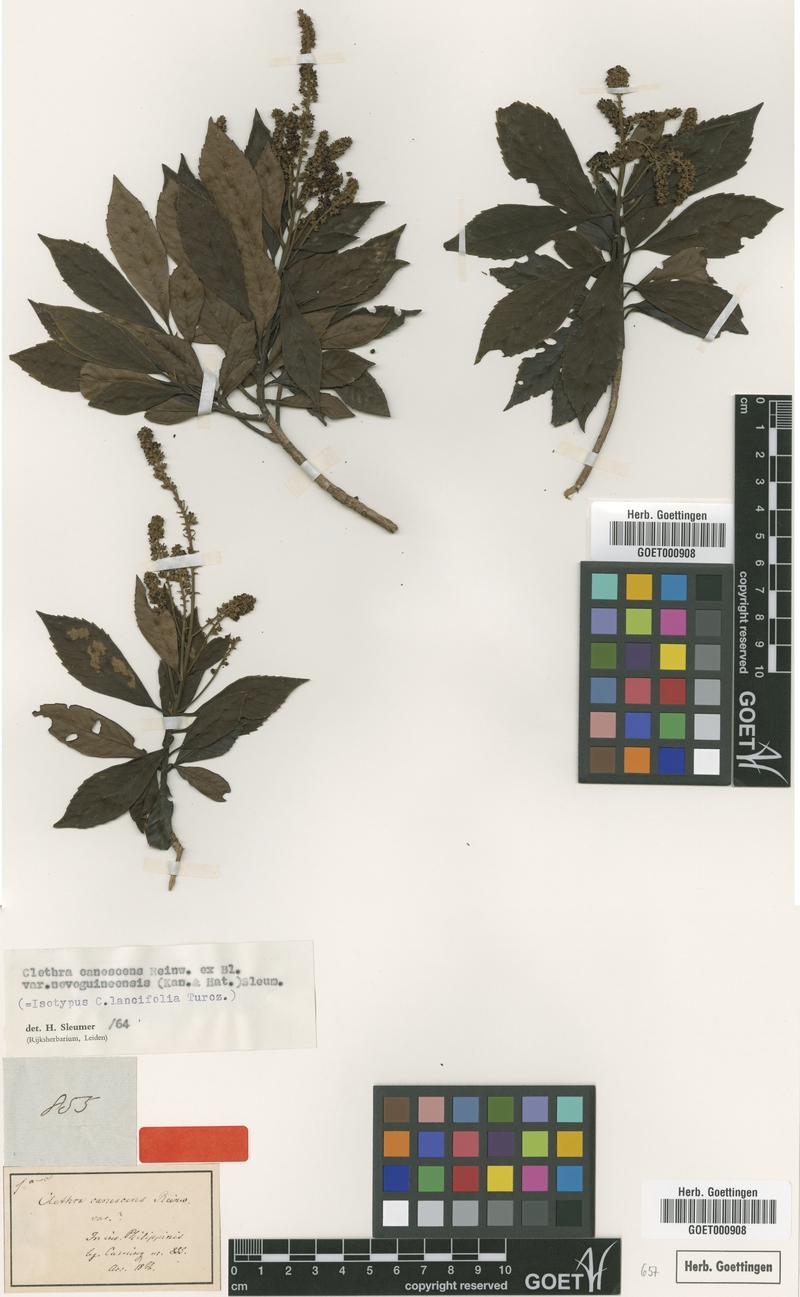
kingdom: Plantae
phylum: Tracheophyta
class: Magnoliopsida
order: Ericales
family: Clethraceae
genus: Clethra
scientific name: Clethra canescens
